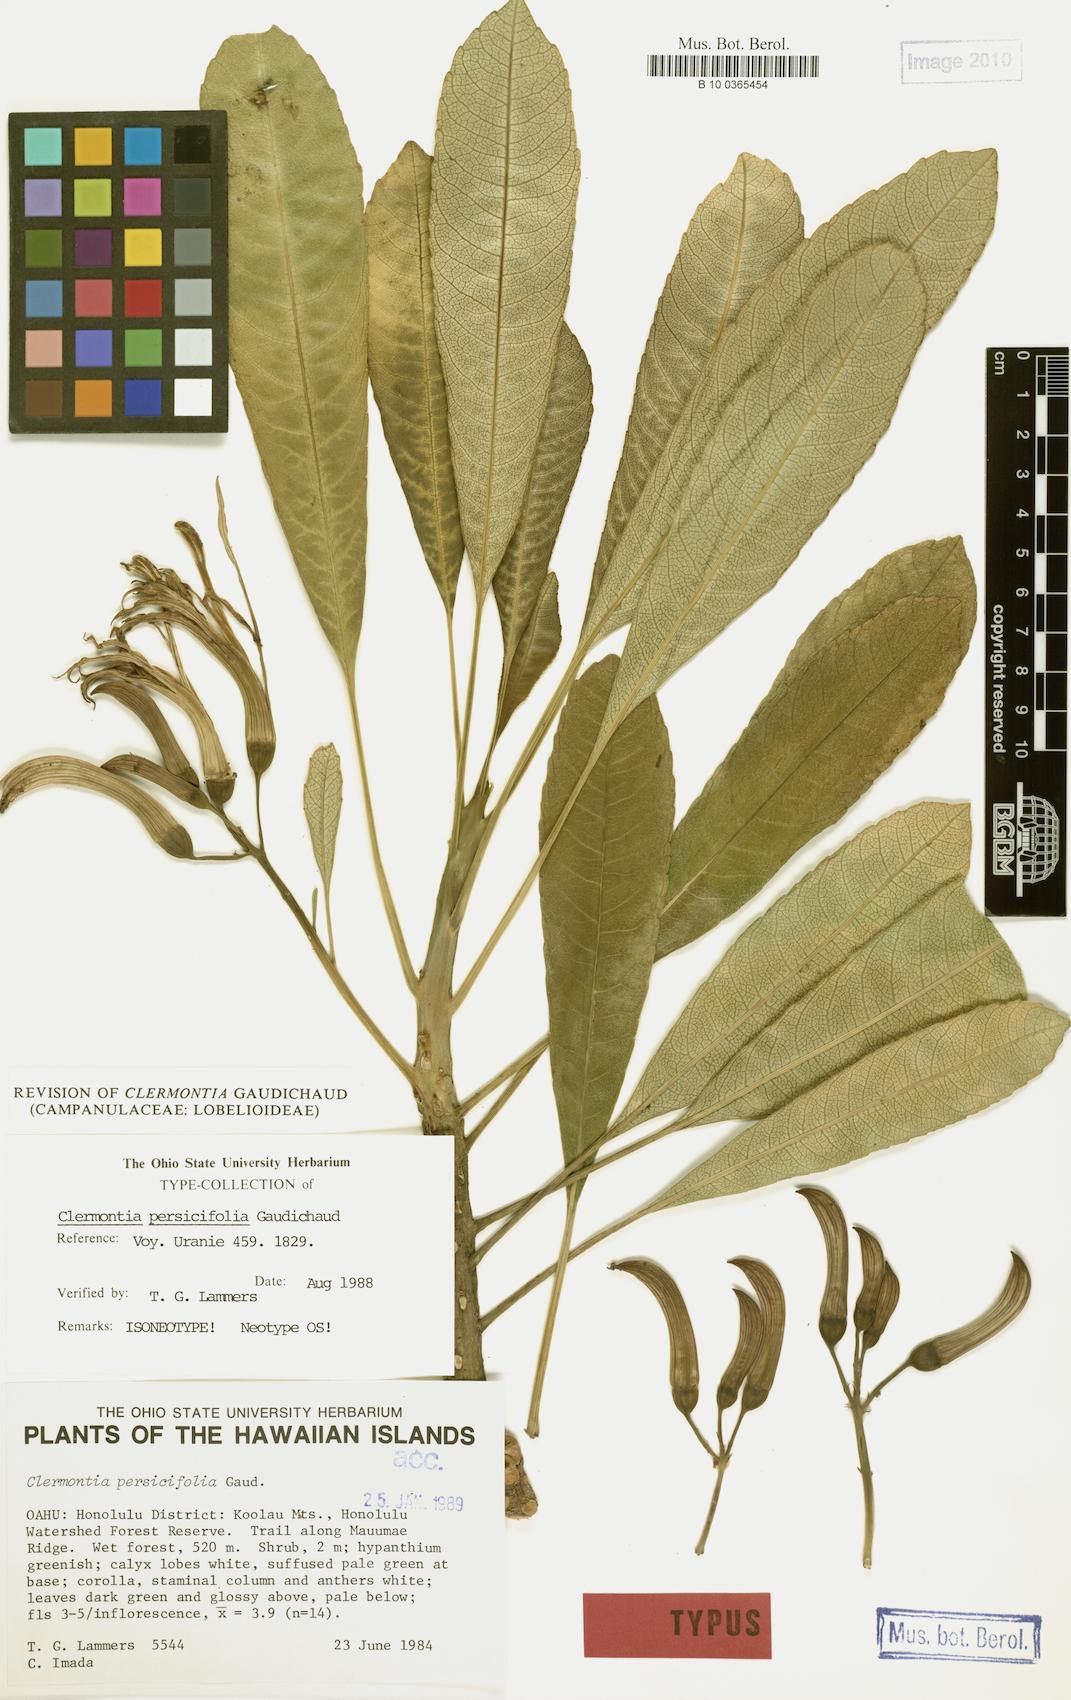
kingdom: Plantae
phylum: Tracheophyta
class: Magnoliopsida
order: Asterales
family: Campanulaceae
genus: Clermontia
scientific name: Clermontia persicifolia
